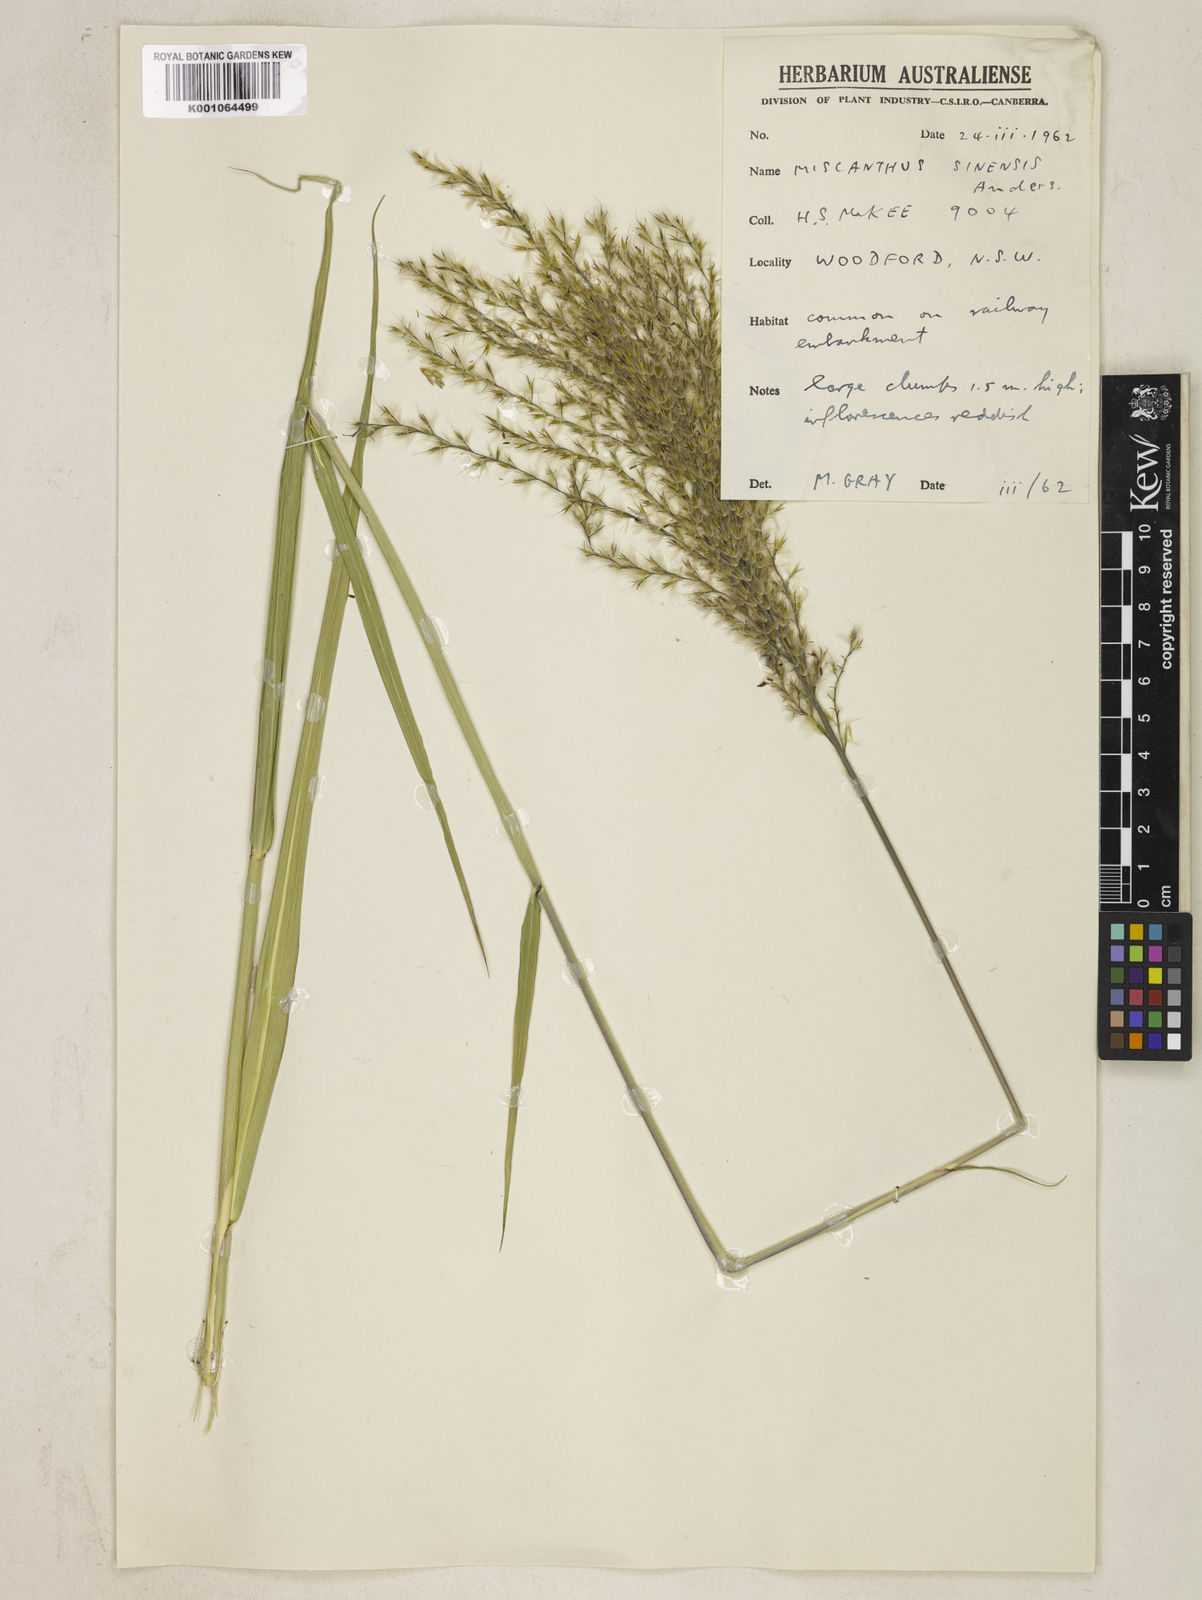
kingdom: Plantae
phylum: Tracheophyta
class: Liliopsida
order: Poales
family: Poaceae
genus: Miscanthus
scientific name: Miscanthus sinensis
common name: Chinese silvergrass
